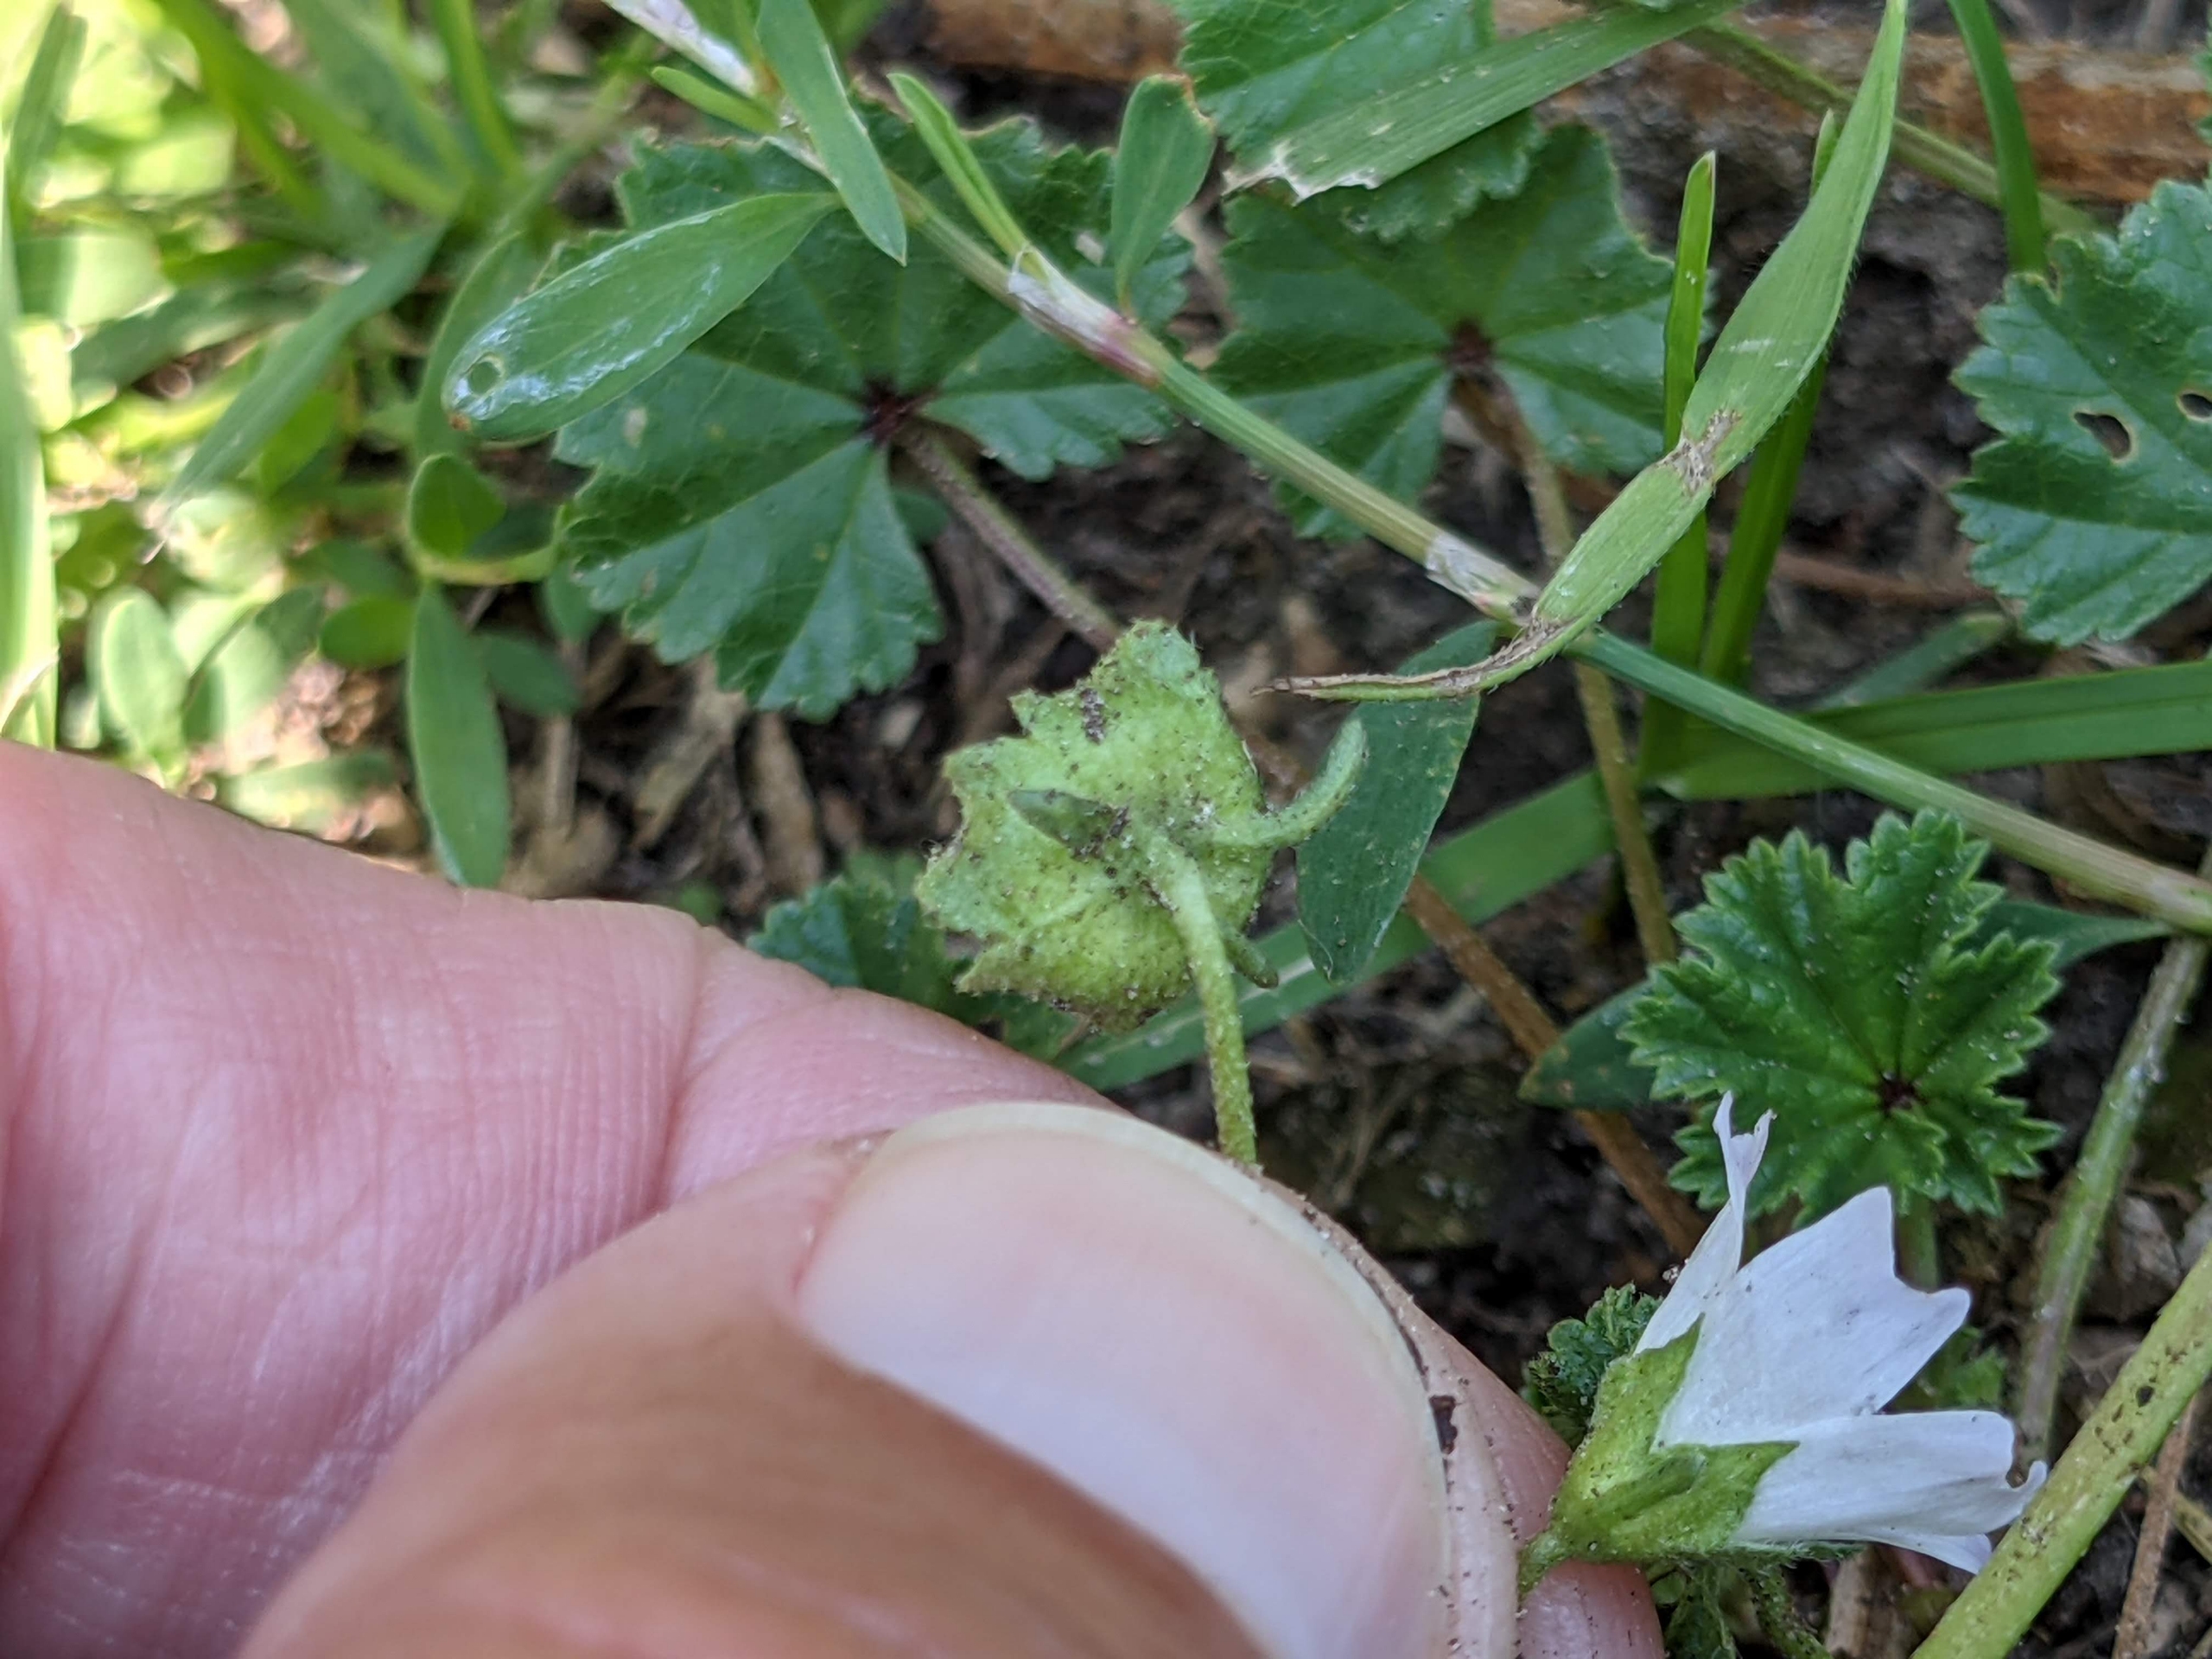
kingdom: Plantae
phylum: Tracheophyta
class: Magnoliopsida
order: Malvales
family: Malvaceae
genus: Malva
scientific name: Malva neglecta
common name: Rundbladet katost
